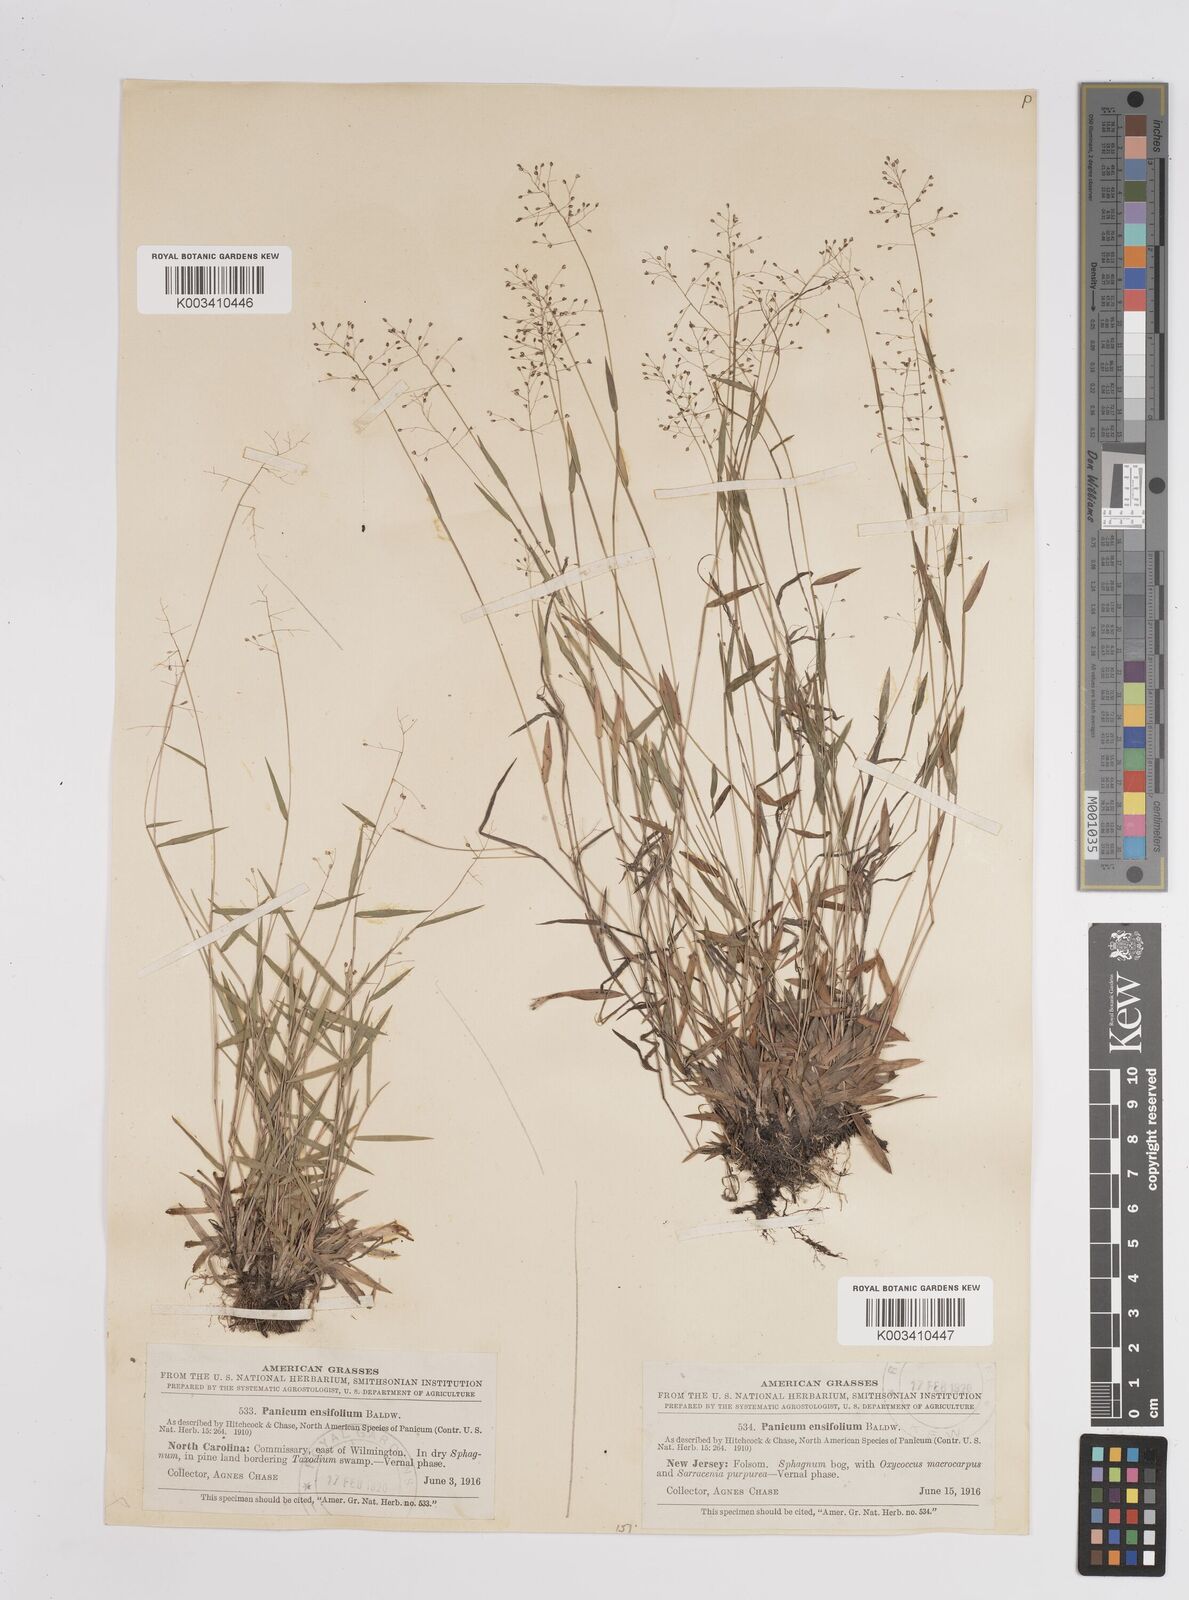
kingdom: Plantae
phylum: Tracheophyta
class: Liliopsida
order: Poales
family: Poaceae
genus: Dichanthelium
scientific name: Dichanthelium ensifolium
